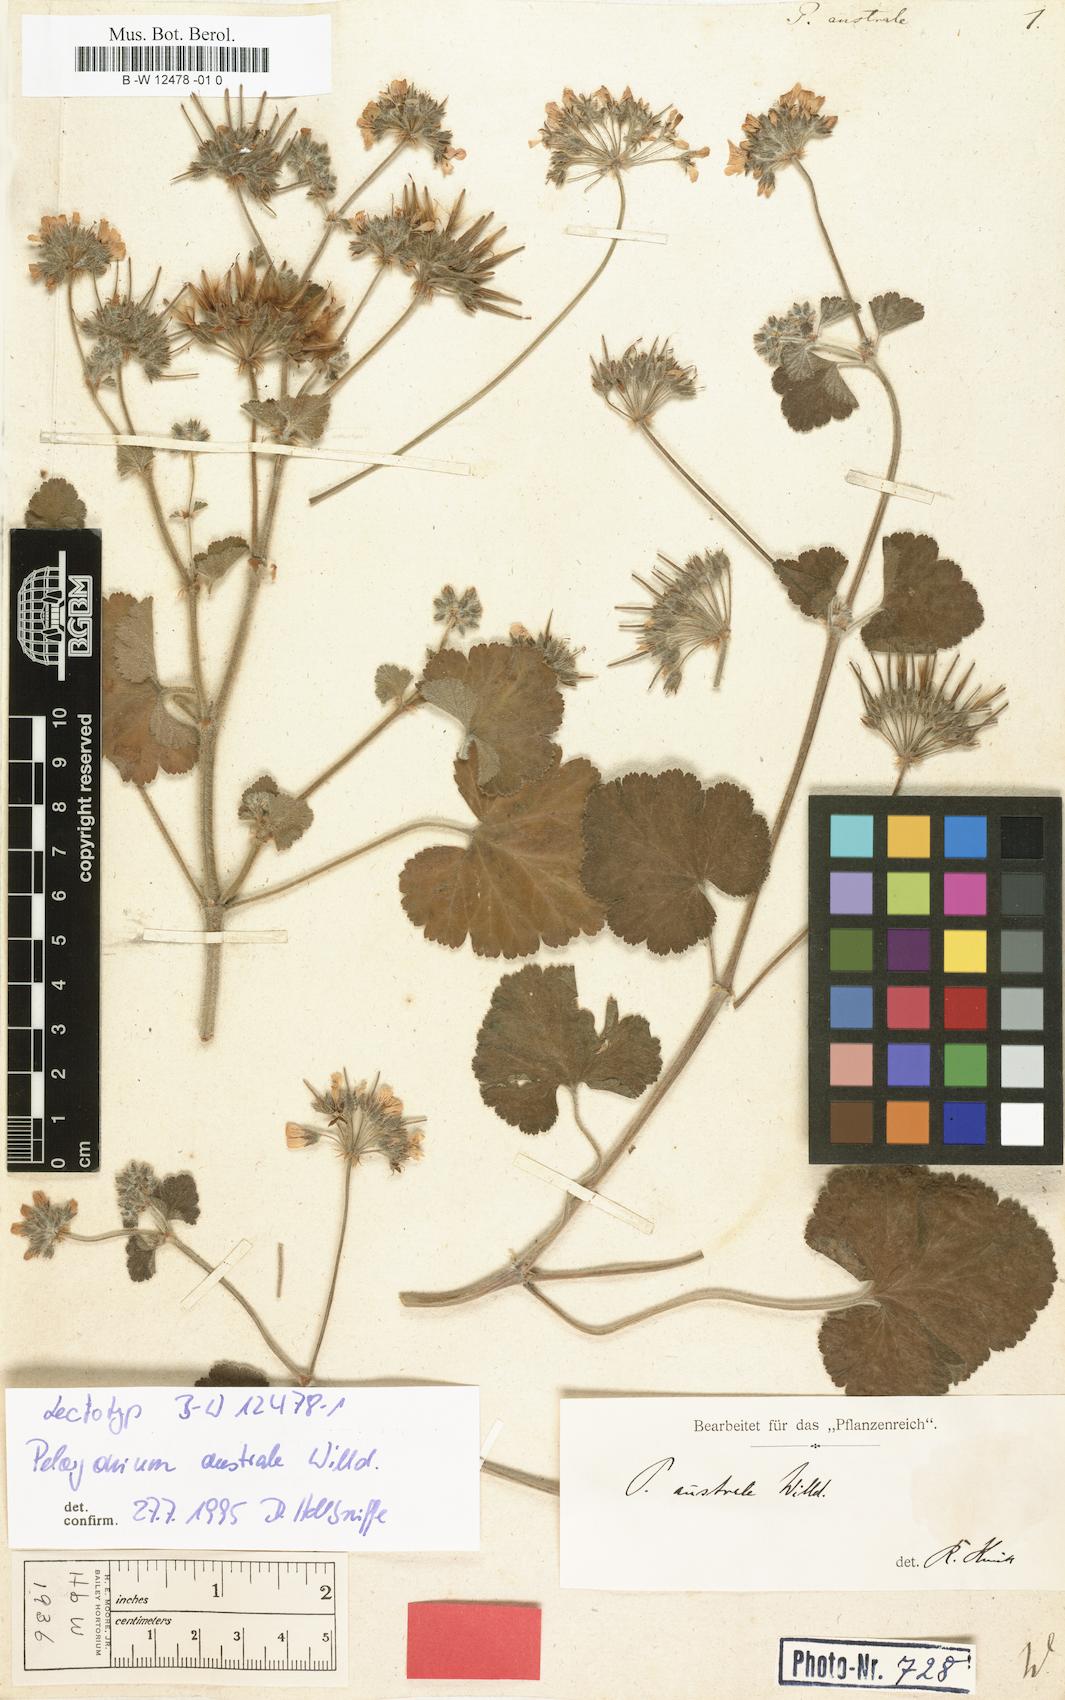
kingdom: Plantae
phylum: Tracheophyta
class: Magnoliopsida
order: Geraniales
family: Geraniaceae
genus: Pelargonium
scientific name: Pelargonium australe
